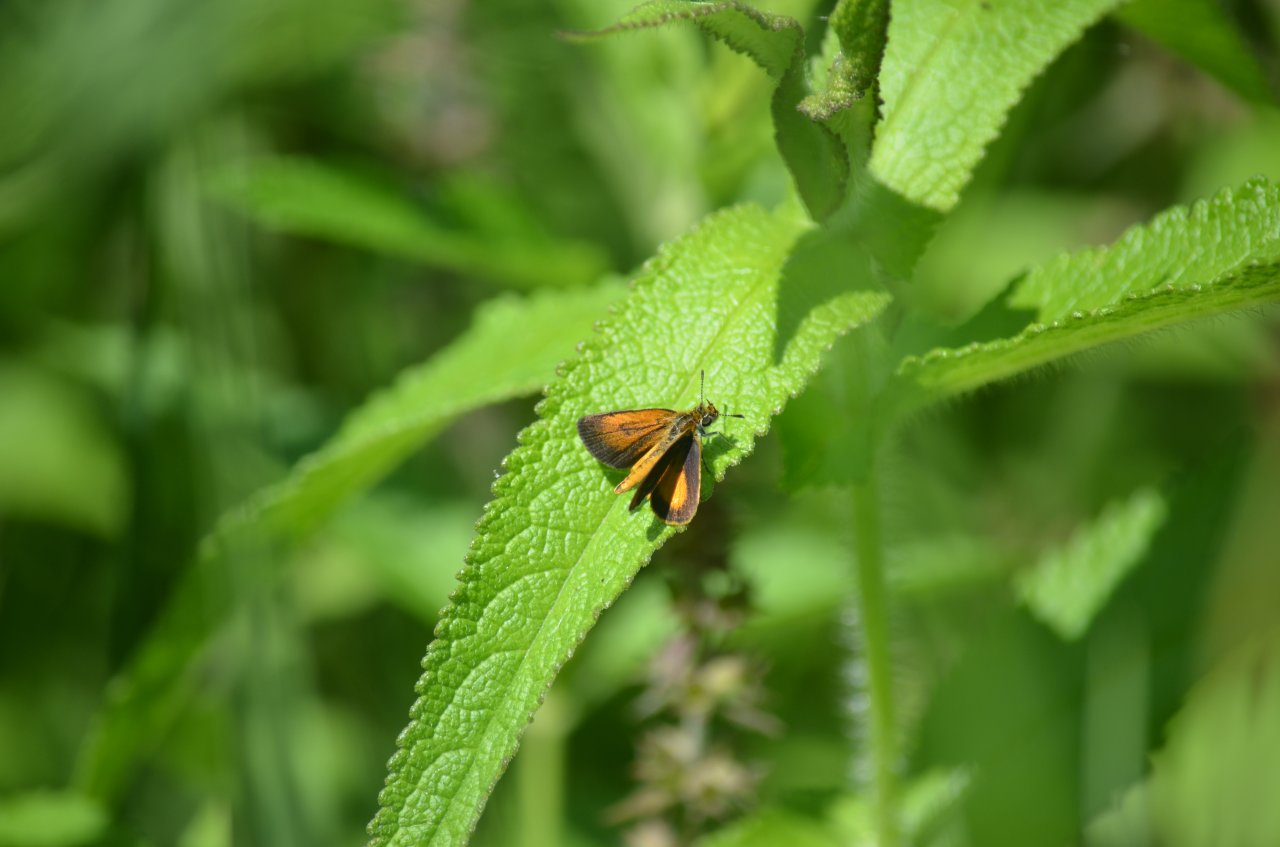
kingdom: Animalia
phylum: Arthropoda
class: Insecta
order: Lepidoptera
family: Hesperiidae
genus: Ancyloxypha
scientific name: Ancyloxypha numitor
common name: Least Skipper
